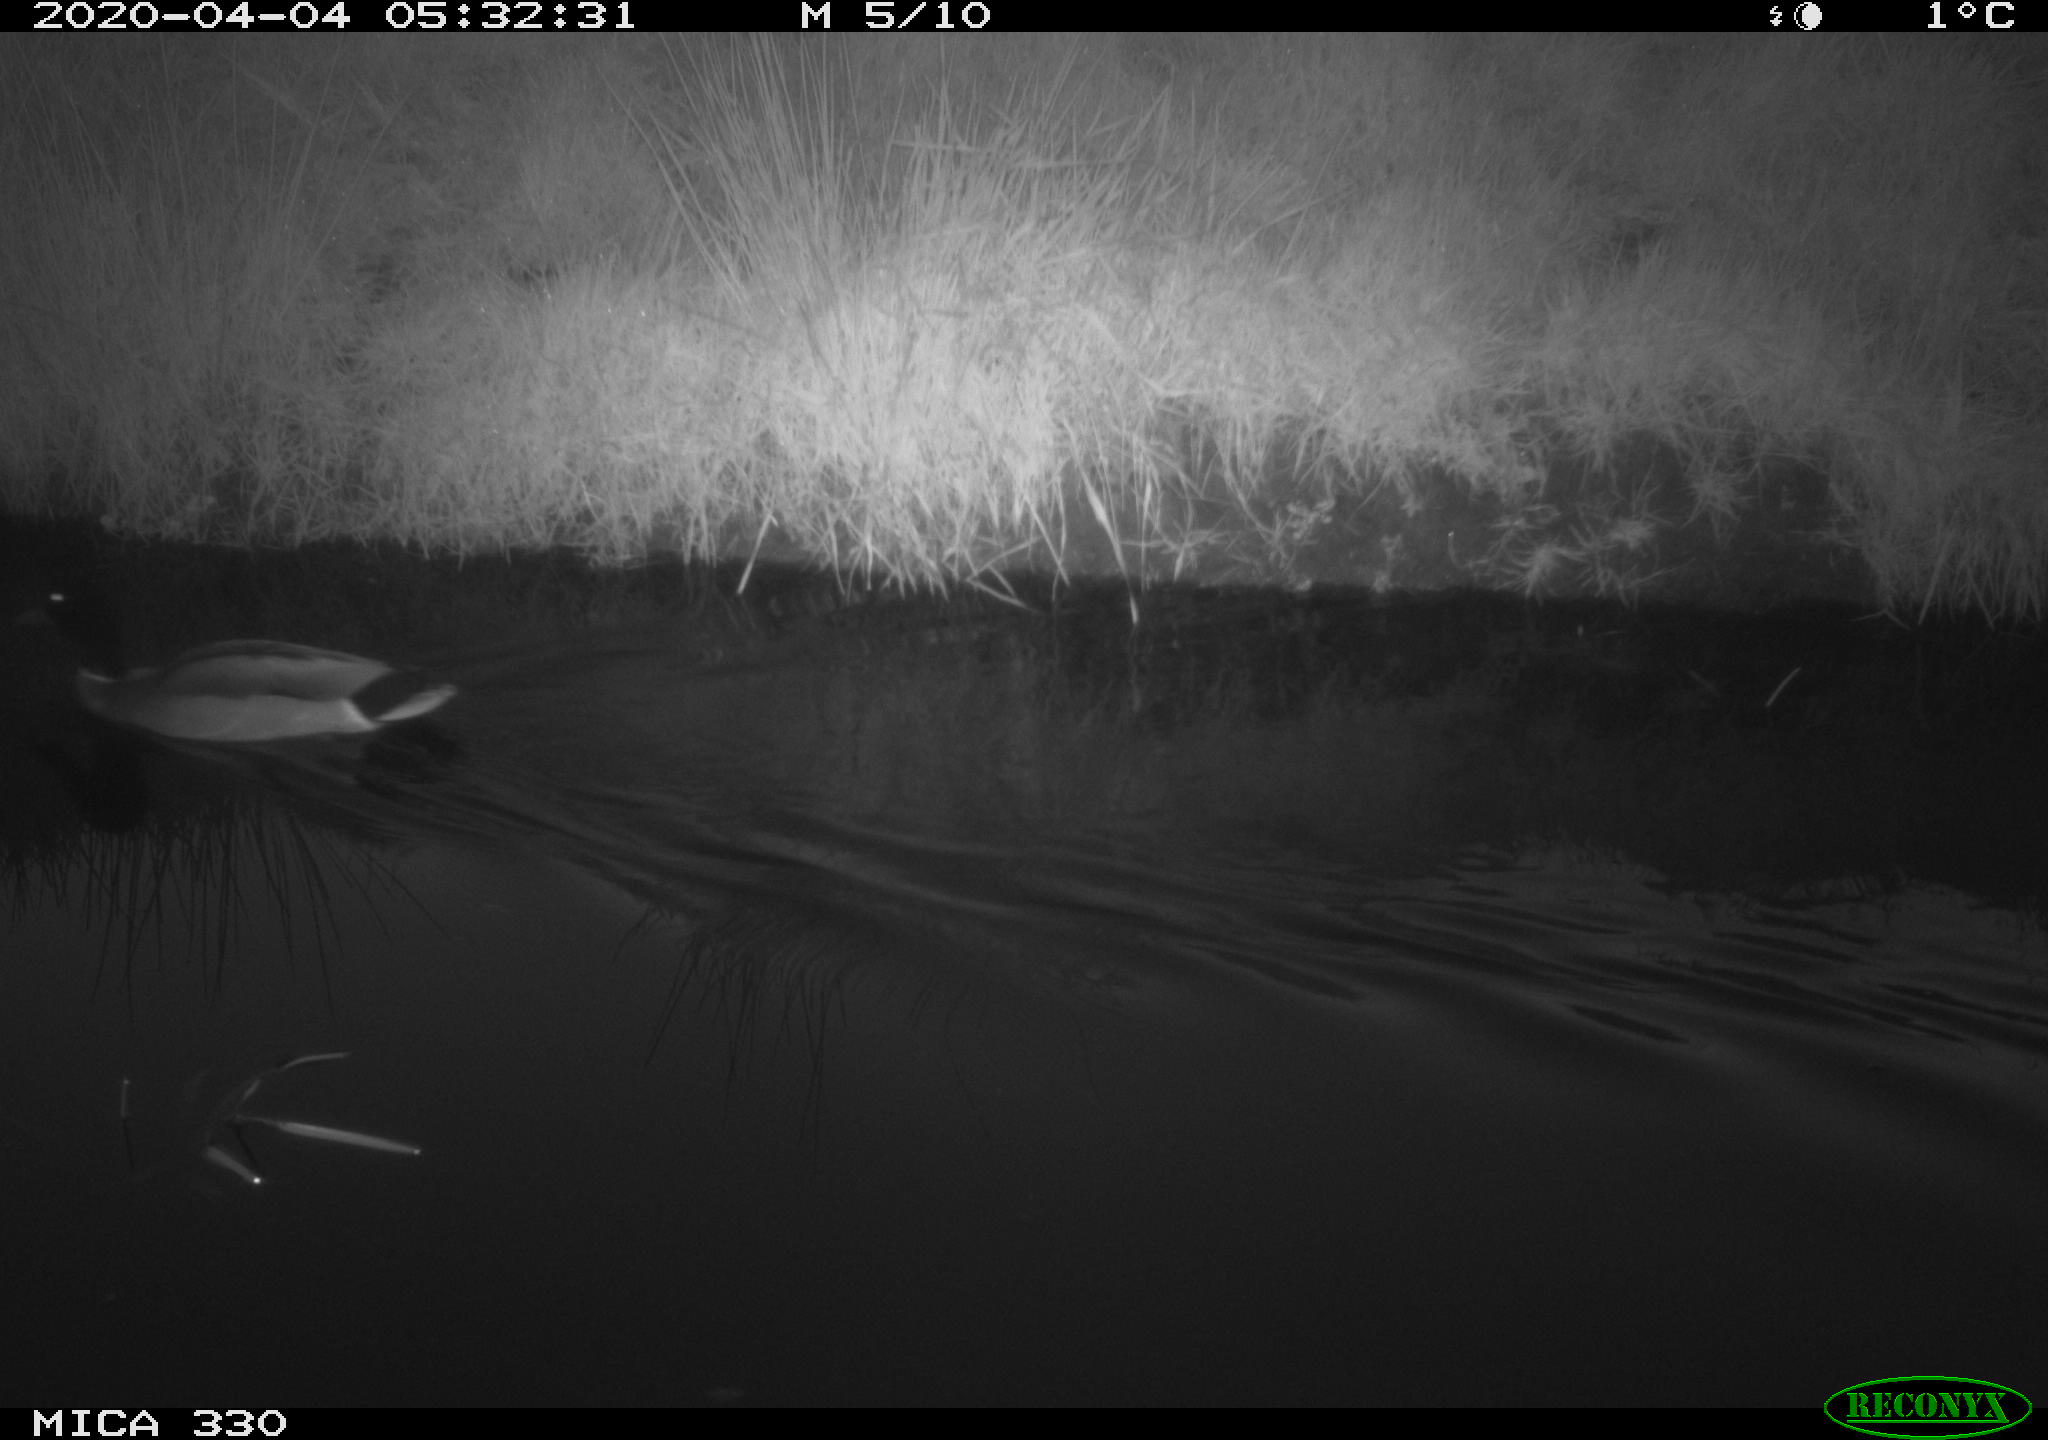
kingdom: Animalia
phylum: Chordata
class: Aves
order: Anseriformes
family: Anatidae
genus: Anas
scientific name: Anas platyrhynchos
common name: Mallard
